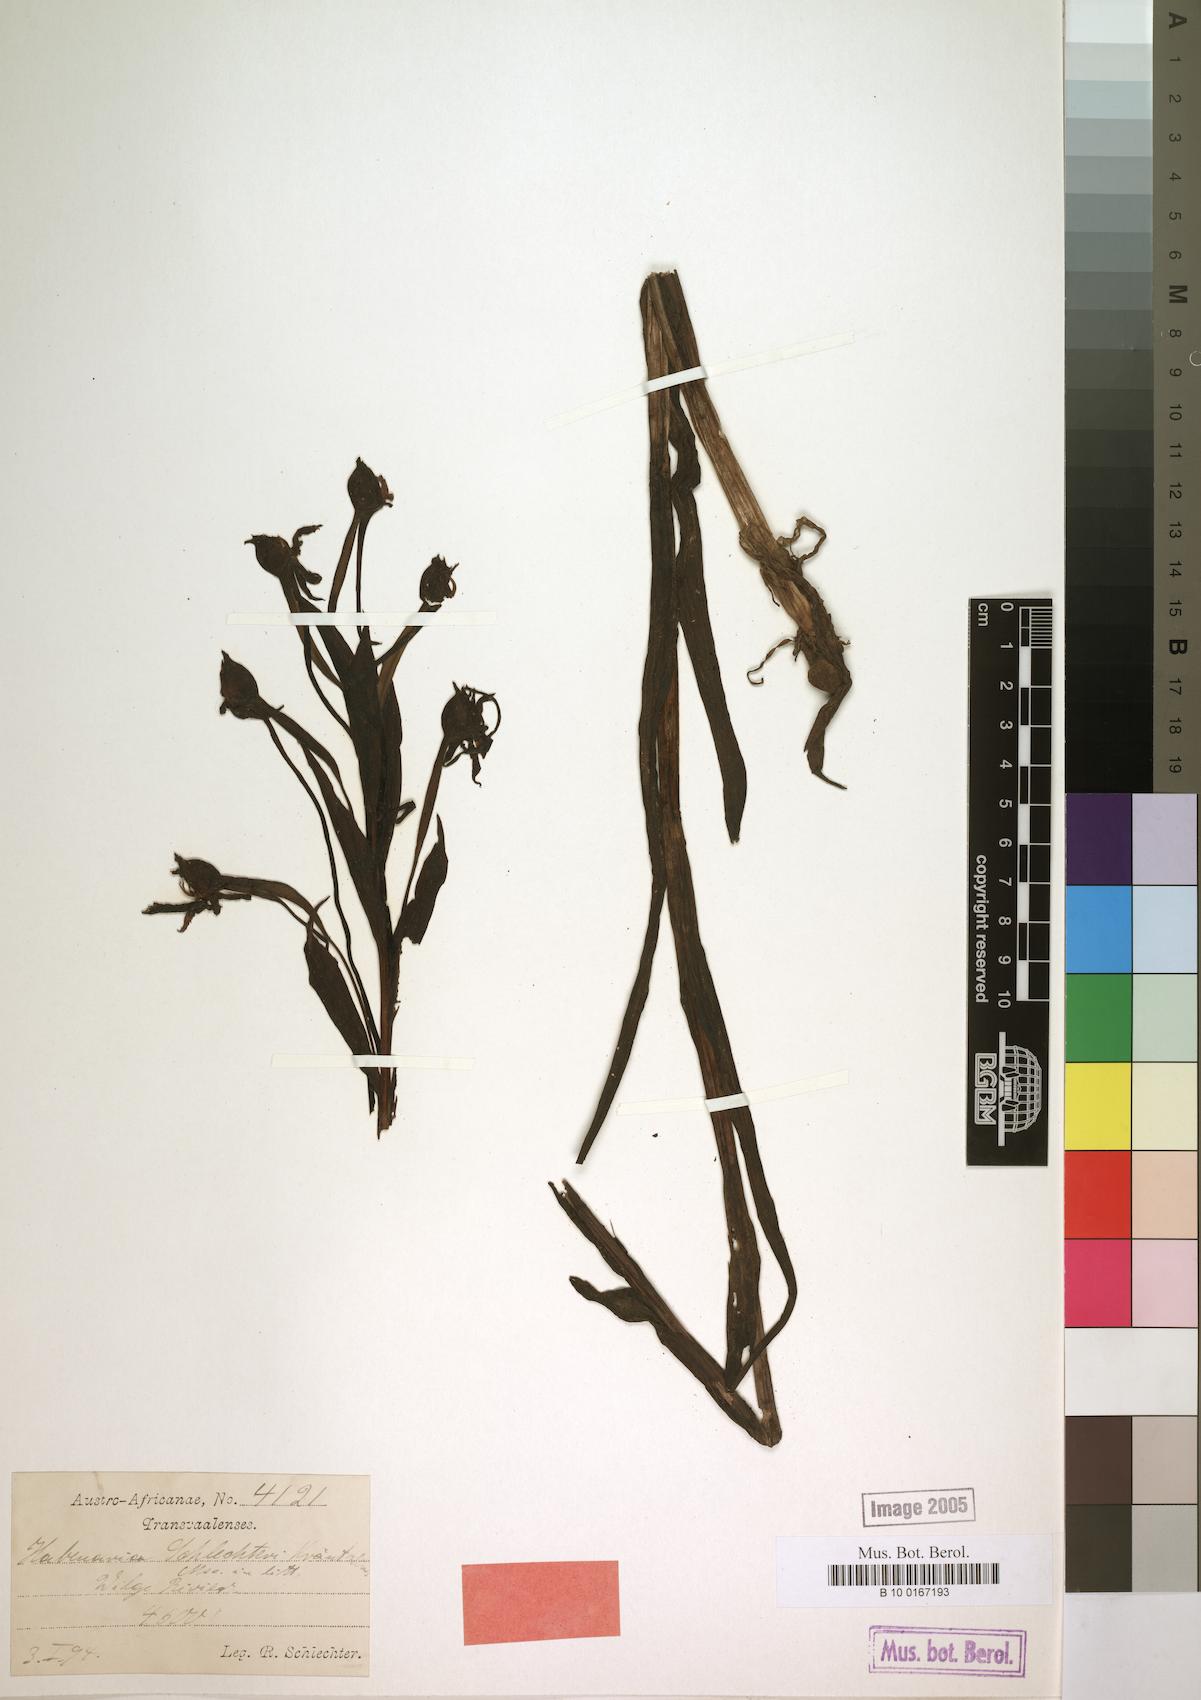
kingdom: Plantae
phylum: Tracheophyta
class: Liliopsida
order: Asparagales
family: Orchidaceae
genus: Centrostigma
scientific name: Centrostigma occultans
